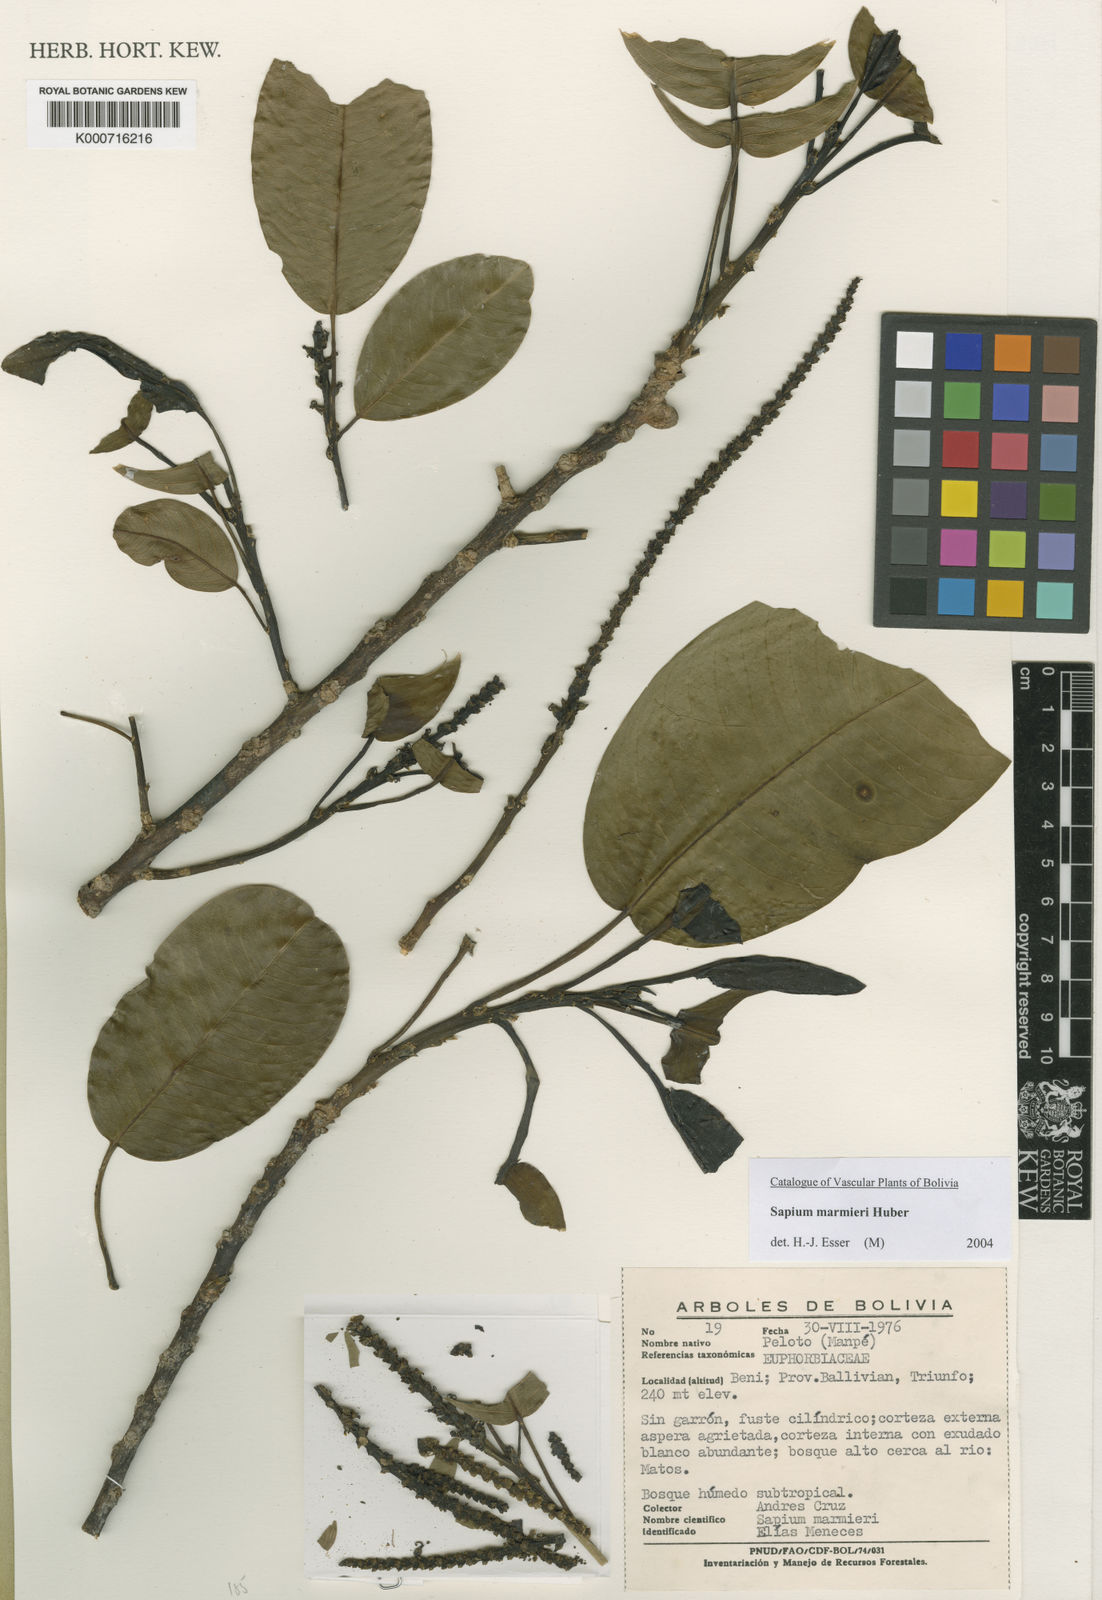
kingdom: Plantae
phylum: Tracheophyta
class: Magnoliopsida
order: Malpighiales
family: Euphorbiaceae
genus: Sapium
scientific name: Sapium marmieri
